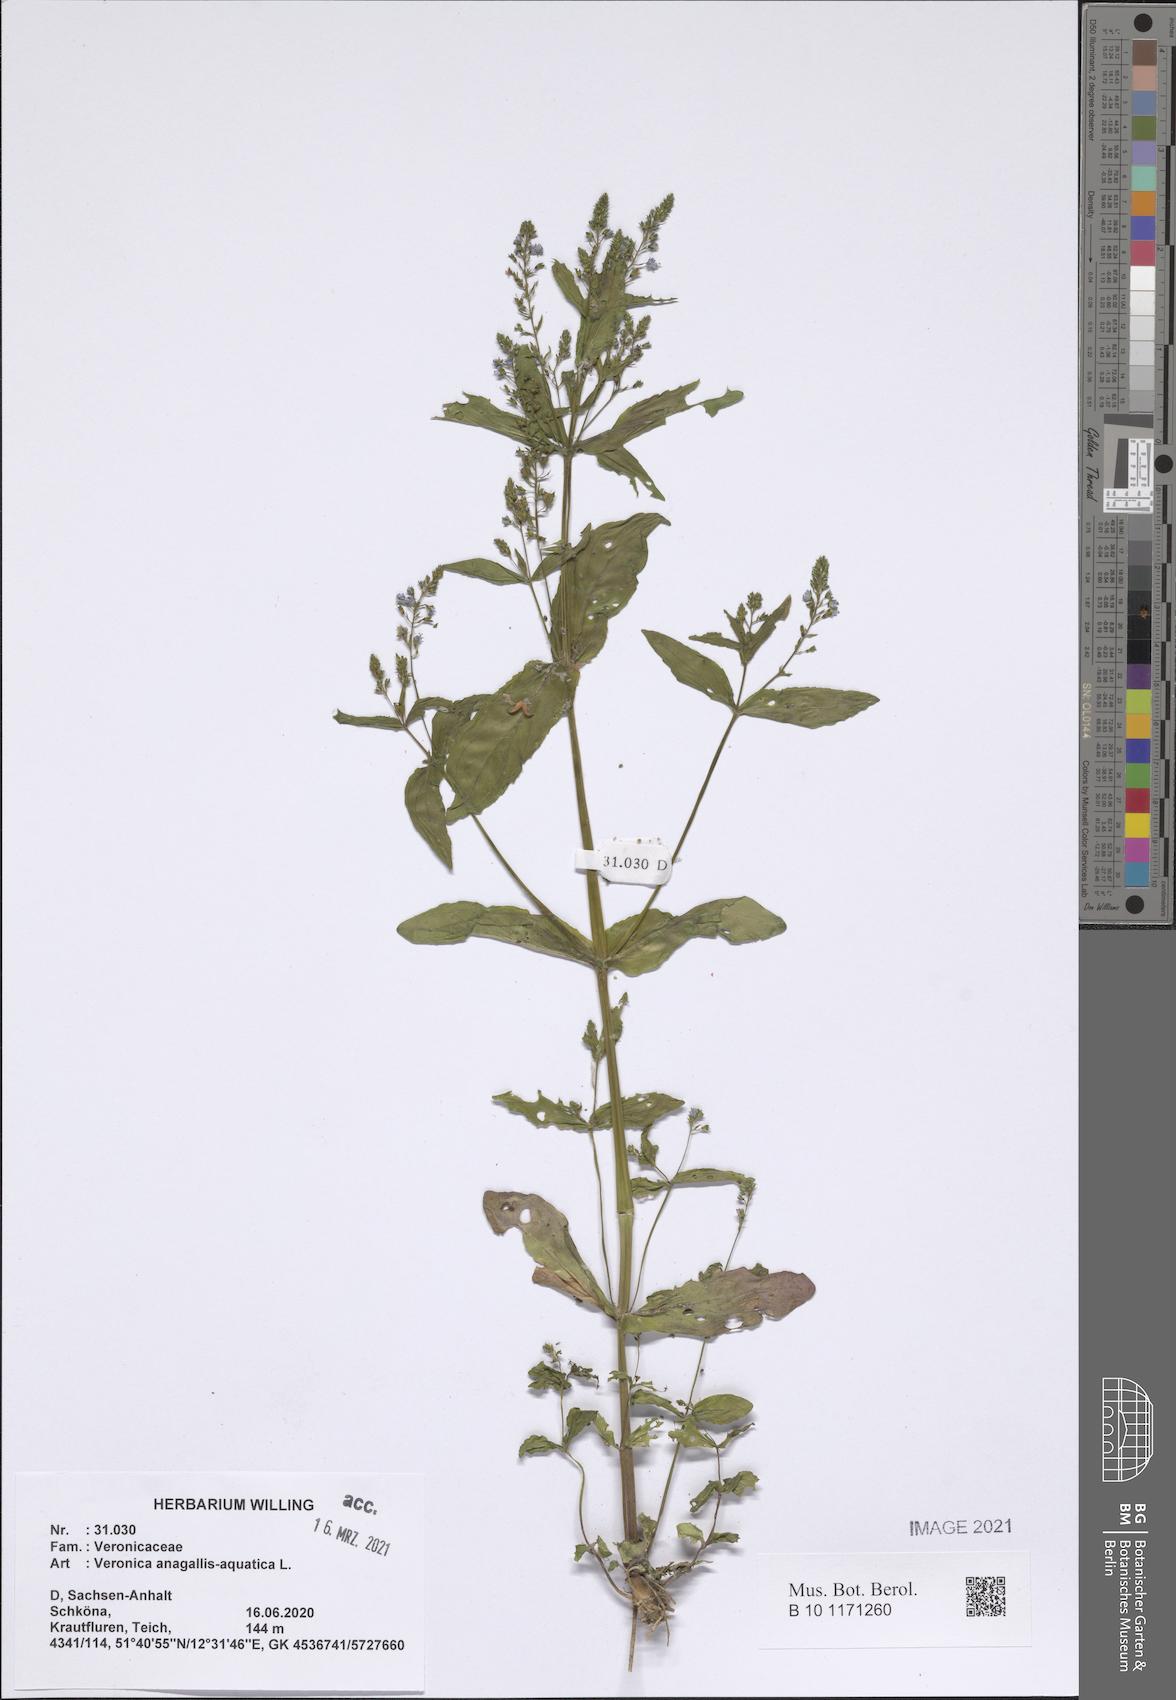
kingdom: Plantae
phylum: Tracheophyta
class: Magnoliopsida
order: Lamiales
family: Plantaginaceae
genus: Veronica
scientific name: Veronica anagallis-aquatica
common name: Water speedwell
